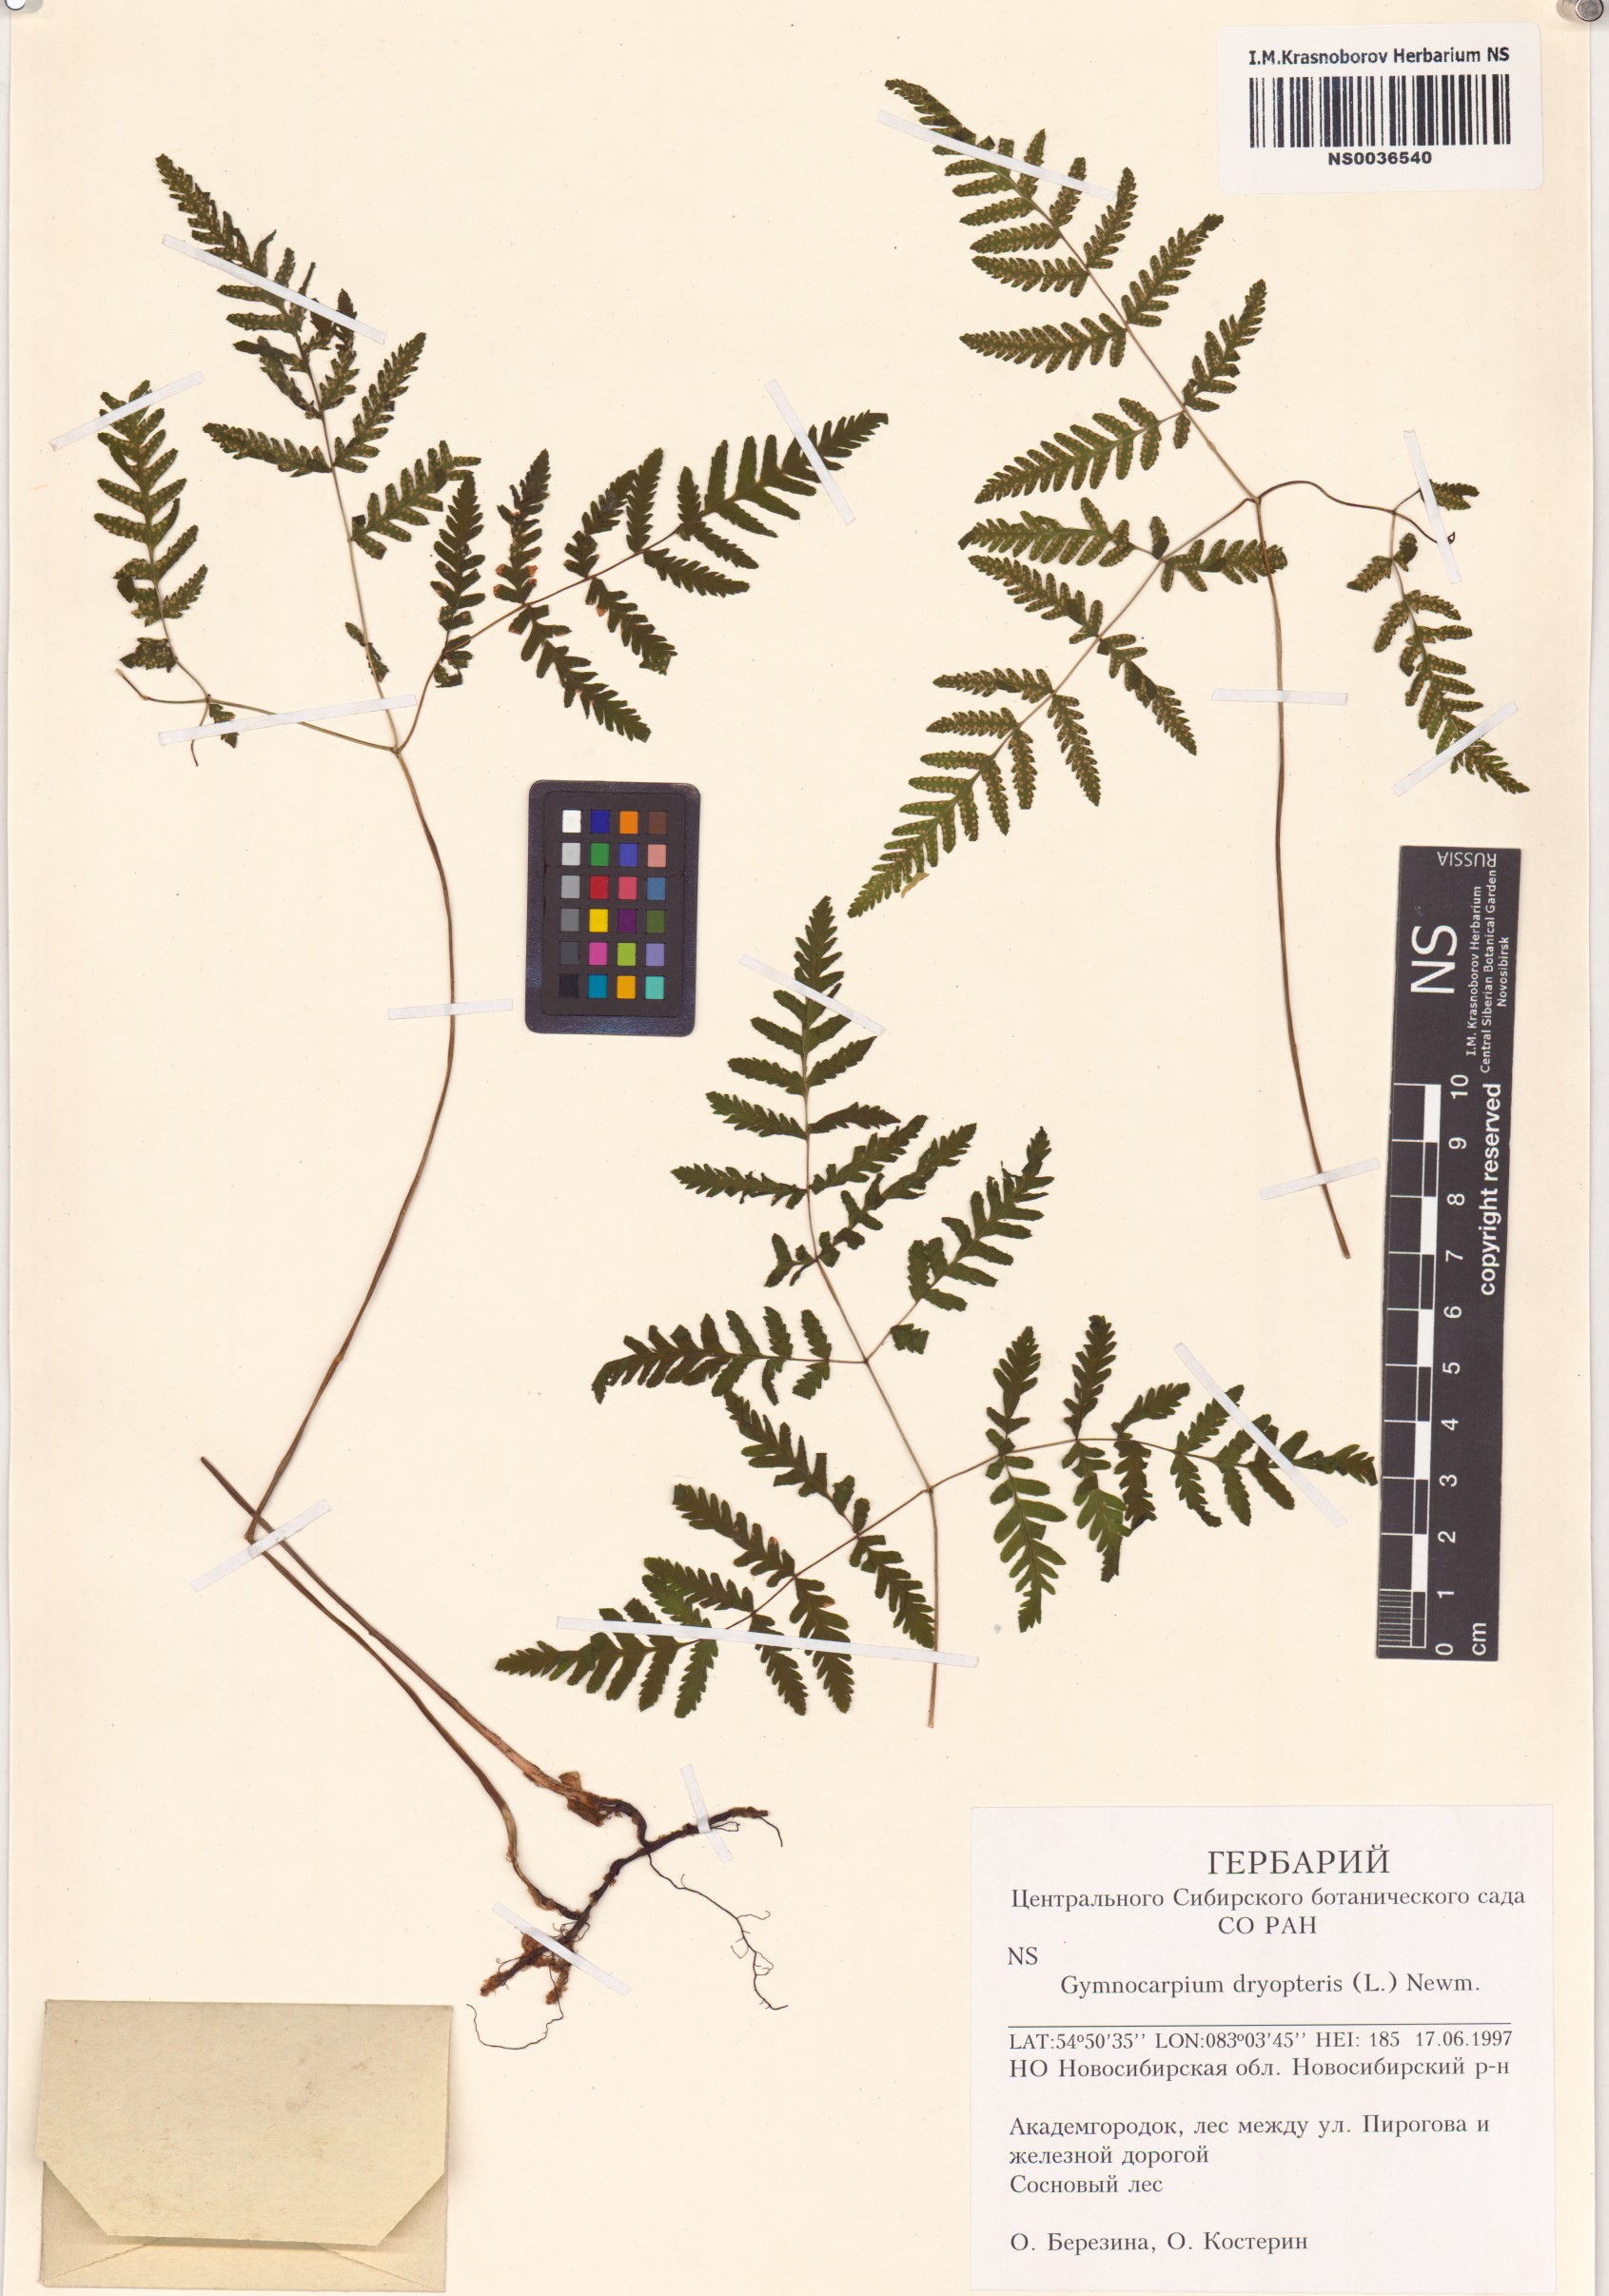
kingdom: Plantae
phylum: Tracheophyta
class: Polypodiopsida
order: Polypodiales
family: Cystopteridaceae
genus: Gymnocarpium
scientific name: Gymnocarpium dryopteris
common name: Oak fern
